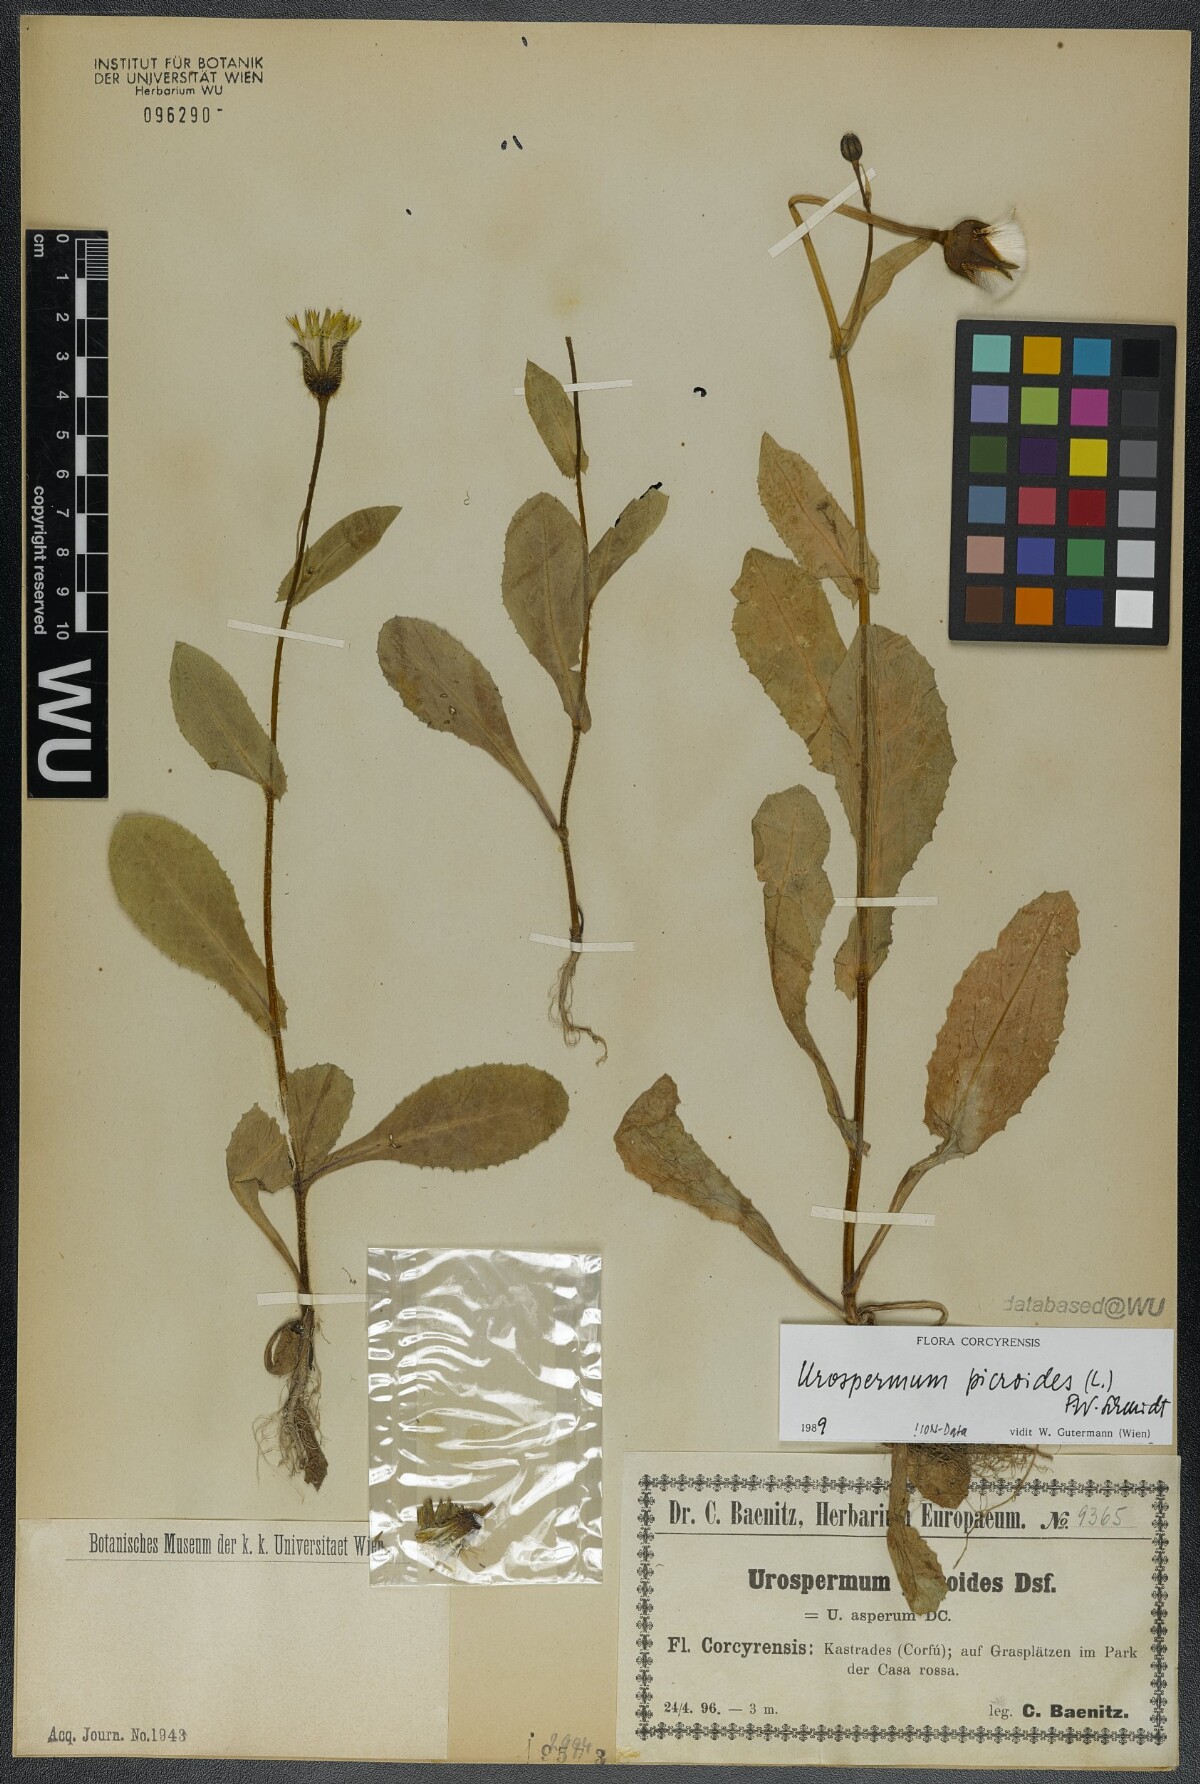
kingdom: Plantae
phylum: Tracheophyta
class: Magnoliopsida
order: Asterales
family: Asteraceae
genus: Urospermum
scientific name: Urospermum picroides
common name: False hawkbit
